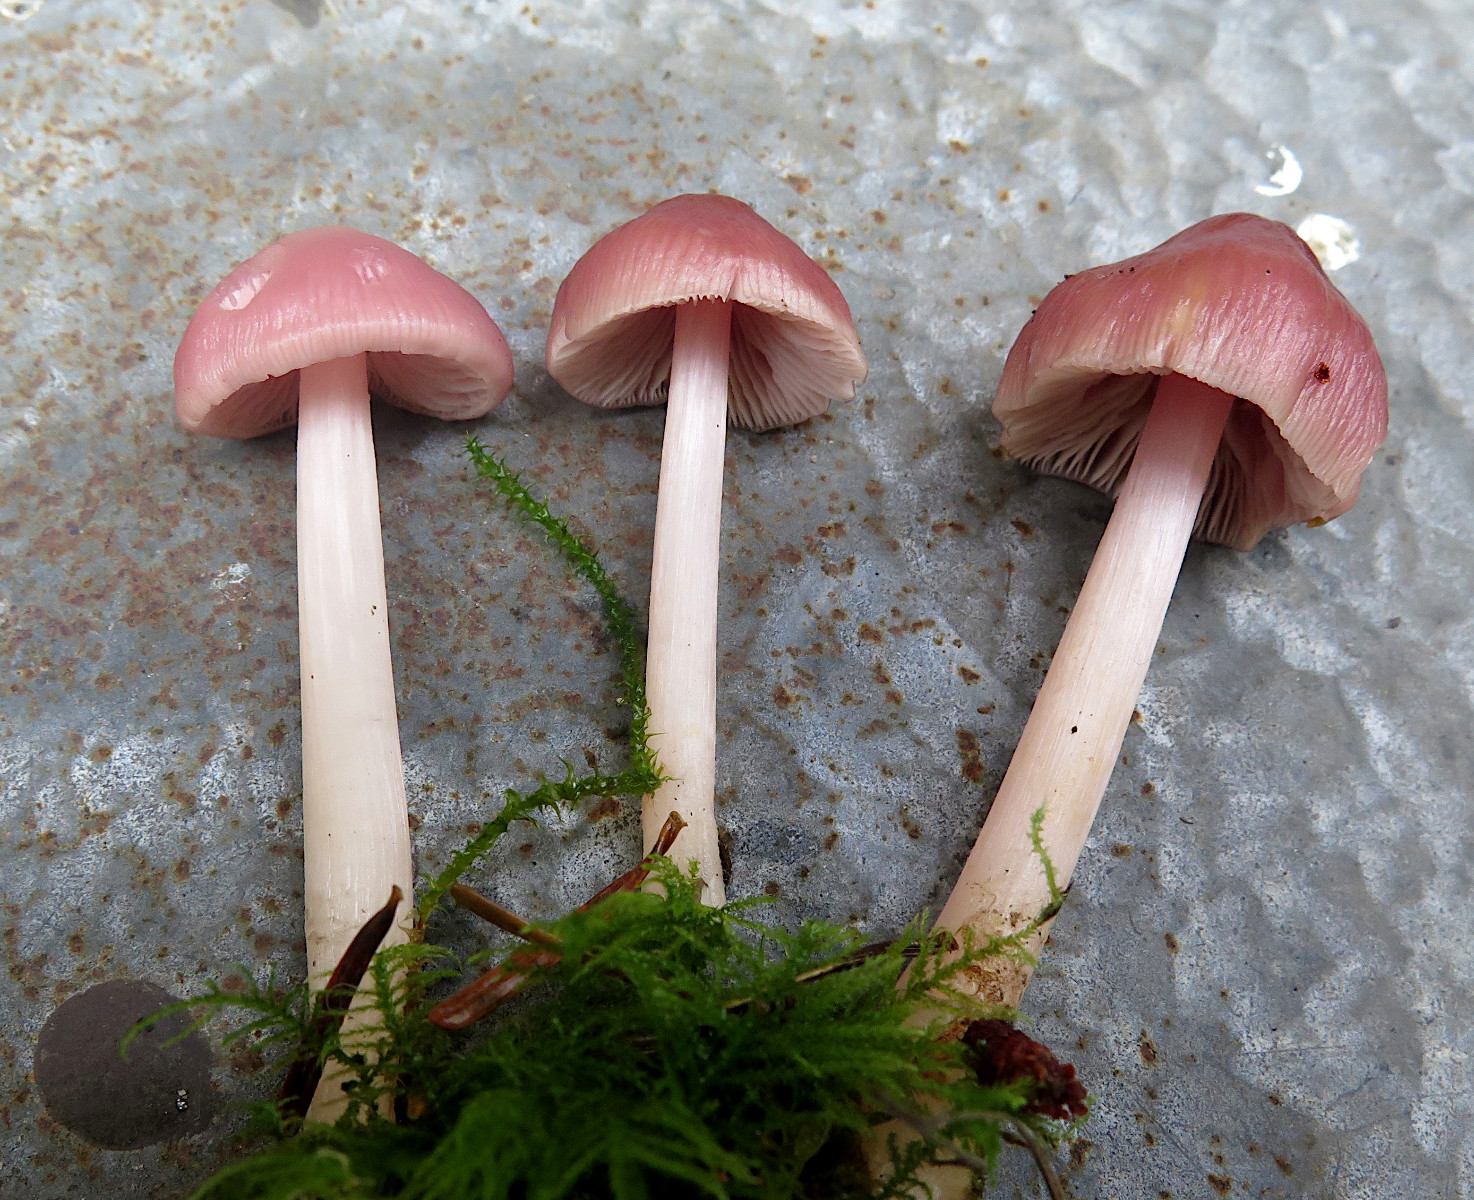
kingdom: Fungi
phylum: Basidiomycota
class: Agaricomycetes
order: Agaricales
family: Mycenaceae
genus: Mycena
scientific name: Mycena rosea
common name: rosa huesvamp
